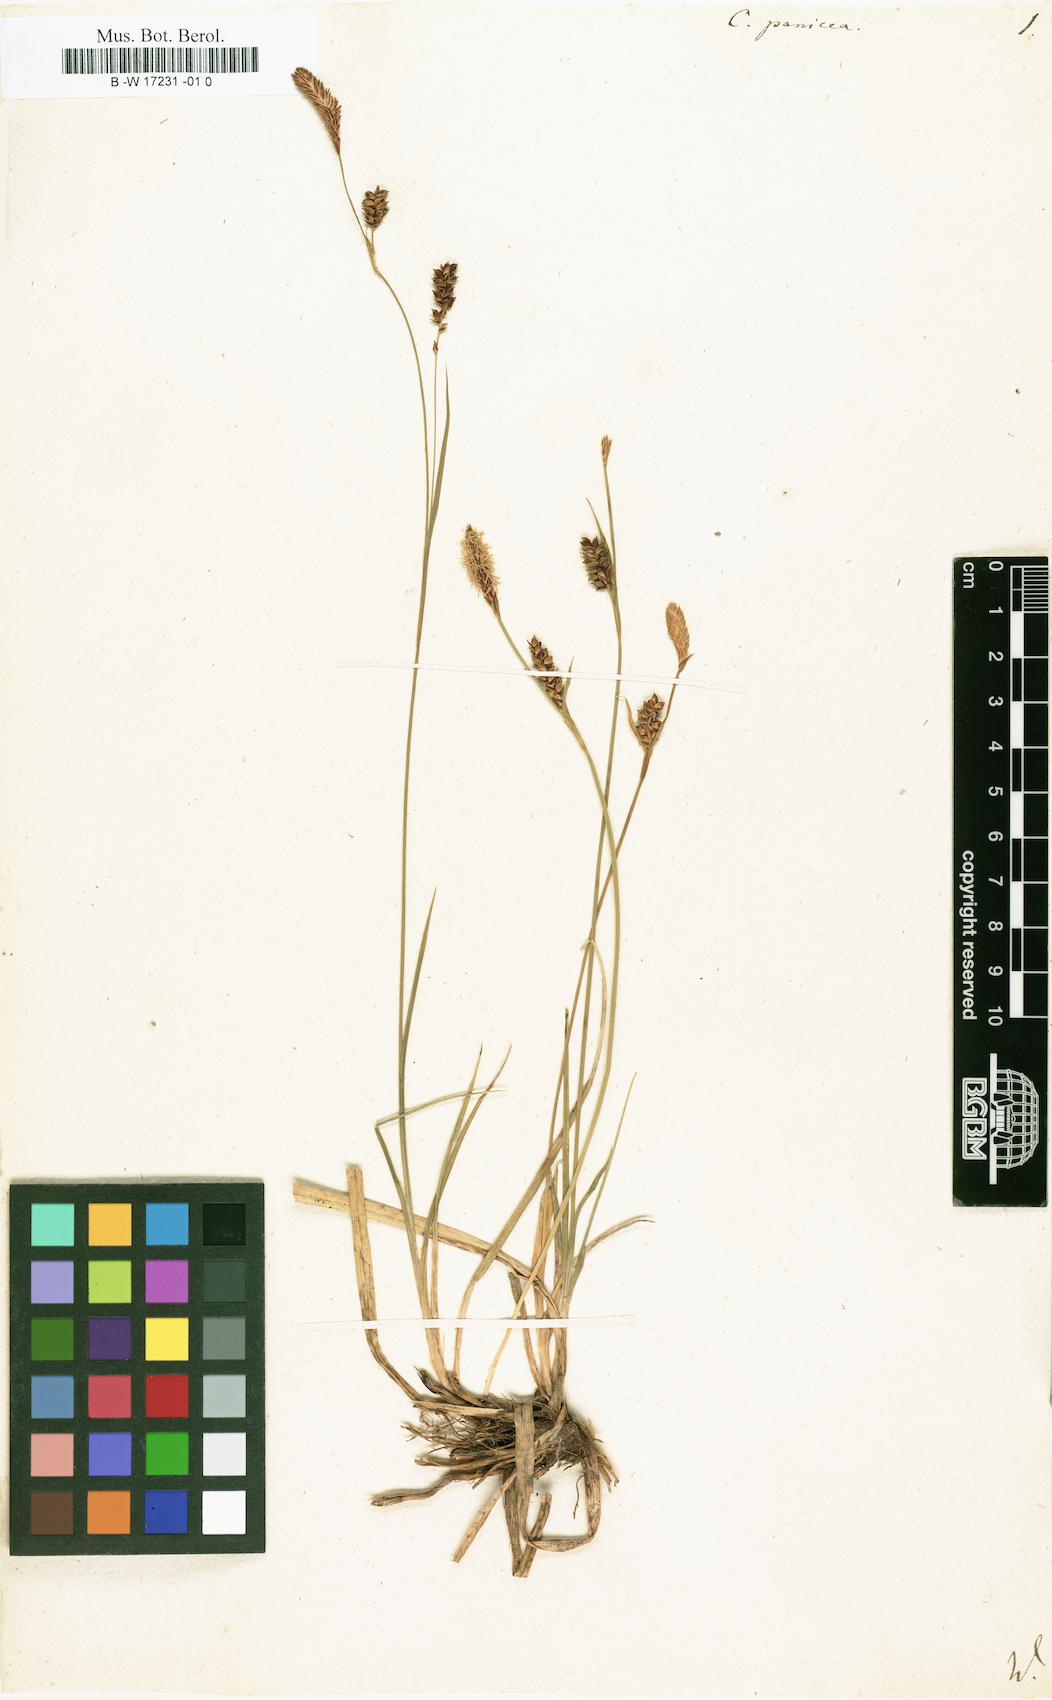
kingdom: Plantae
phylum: Tracheophyta
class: Liliopsida
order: Poales
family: Cyperaceae
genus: Carex
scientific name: Carex panicea
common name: Carnation sedge
